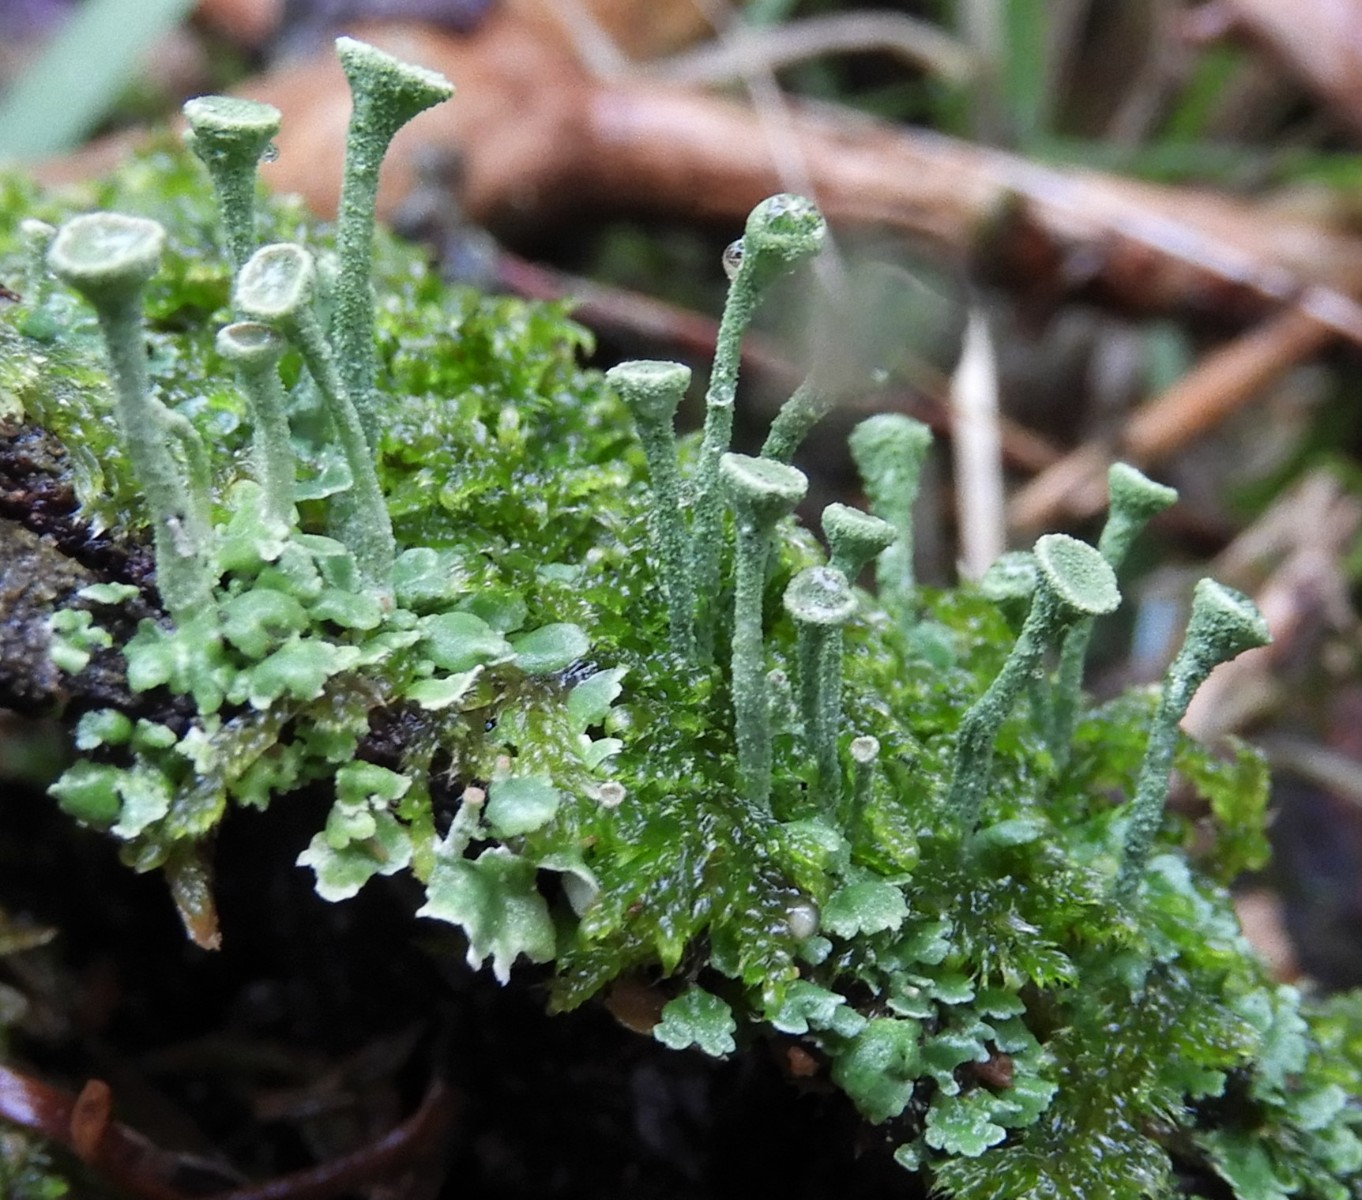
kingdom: Fungi
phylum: Ascomycota
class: Lecanoromycetes
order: Lecanorales
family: Cladoniaceae
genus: Cladonia
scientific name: Cladonia
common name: brungrøn bægerlav
